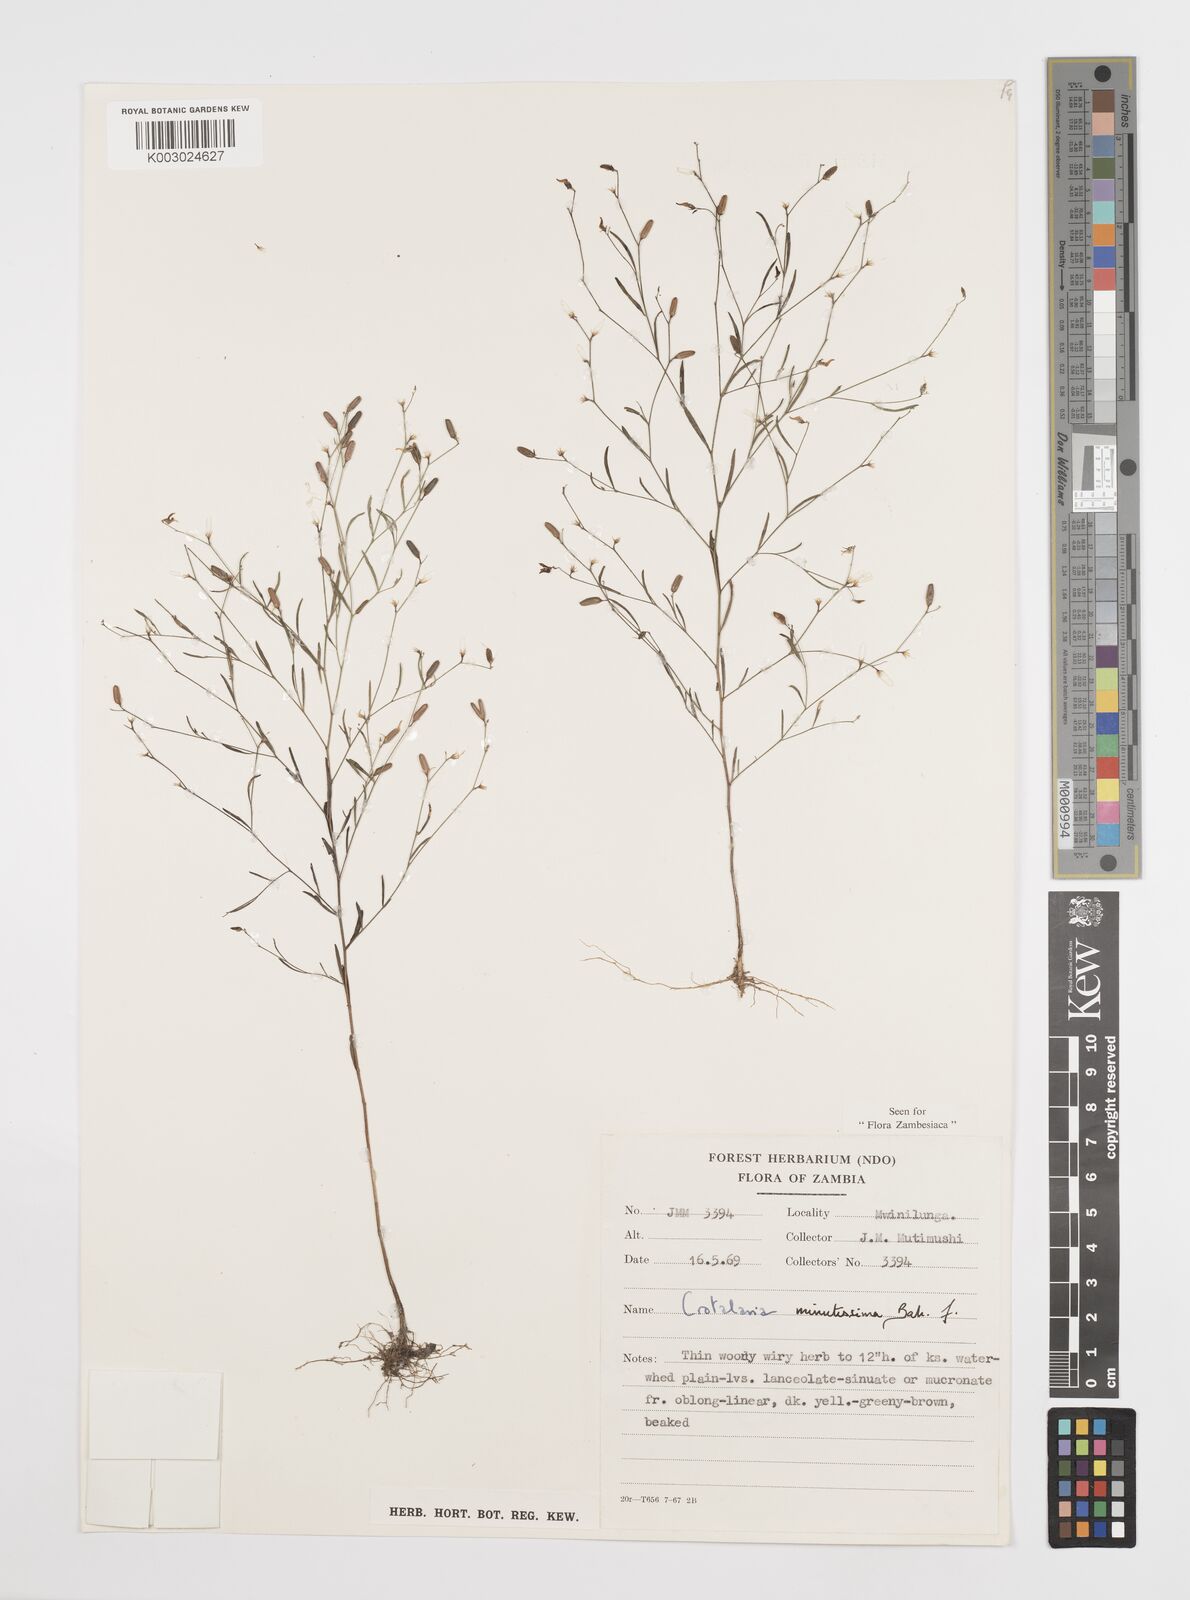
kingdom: Plantae
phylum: Tracheophyta
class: Magnoliopsida
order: Fabales
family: Fabaceae
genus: Crotalaria
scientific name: Crotalaria minutissima
